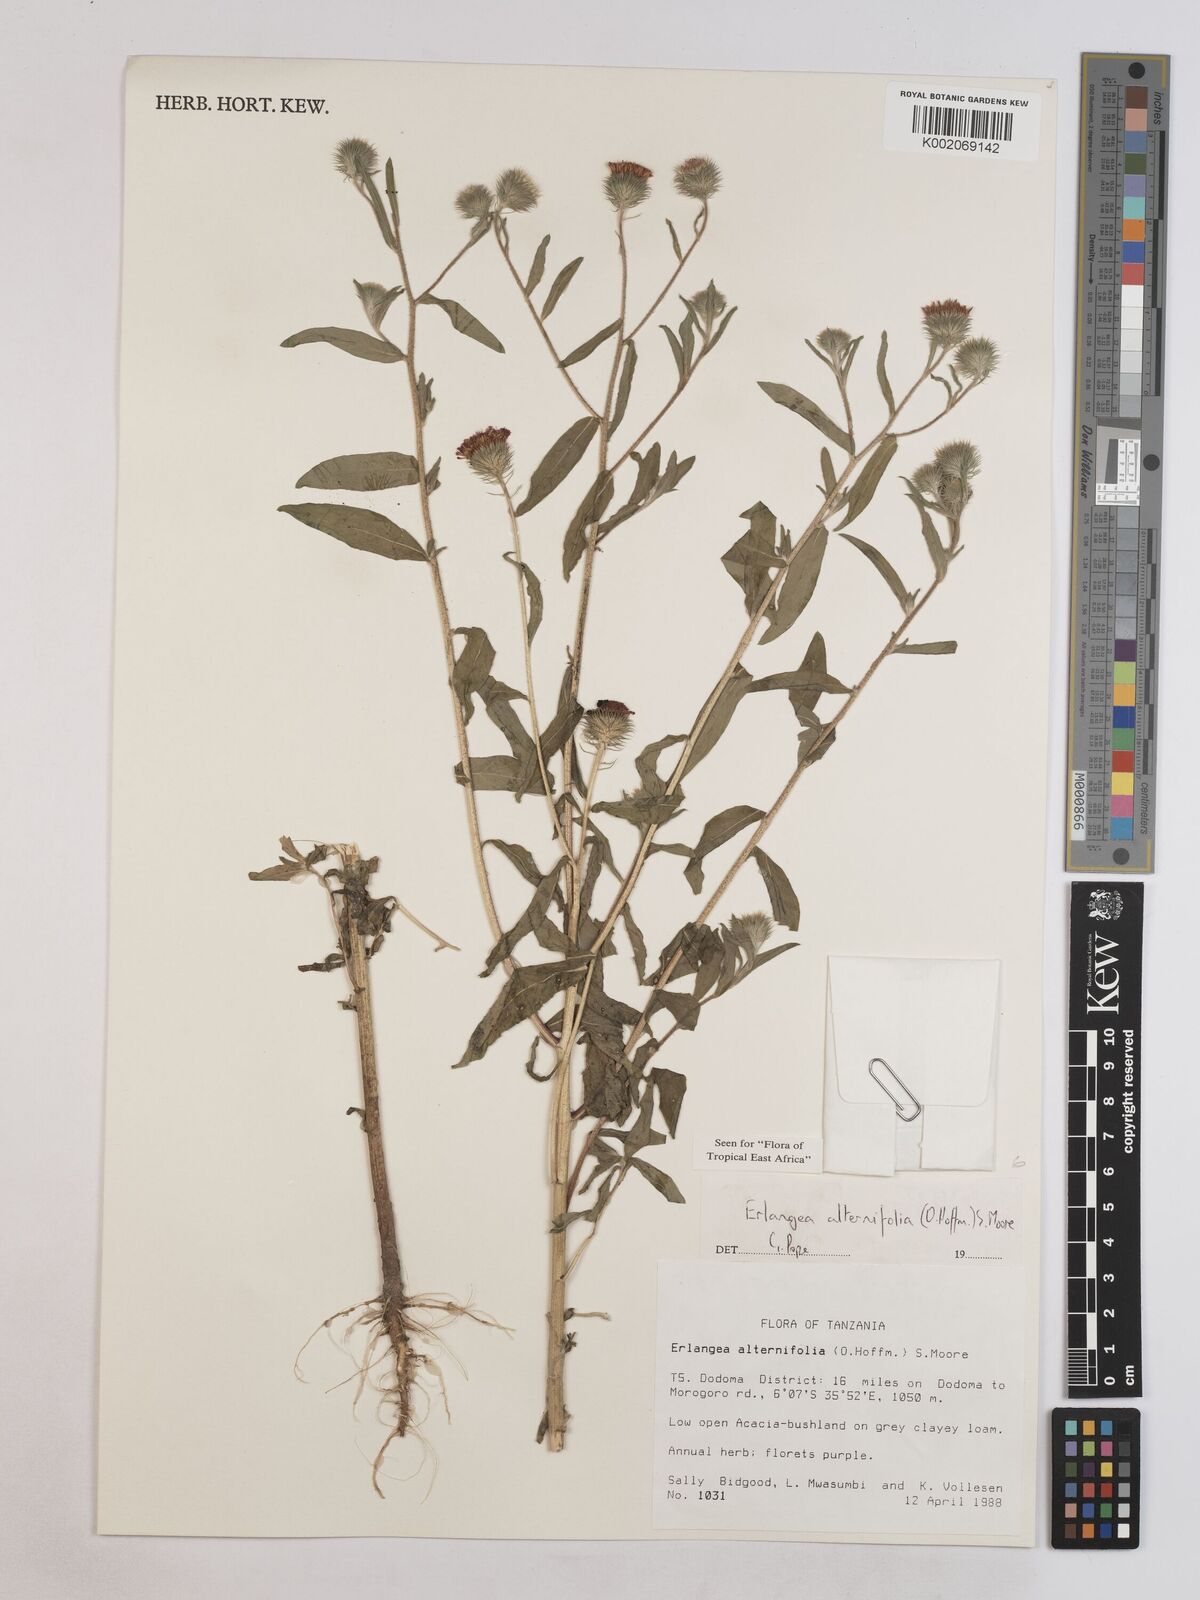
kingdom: Plantae
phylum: Tracheophyta
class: Magnoliopsida
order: Asterales
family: Asteraceae
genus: Erlangea
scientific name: Erlangea alternifolia
